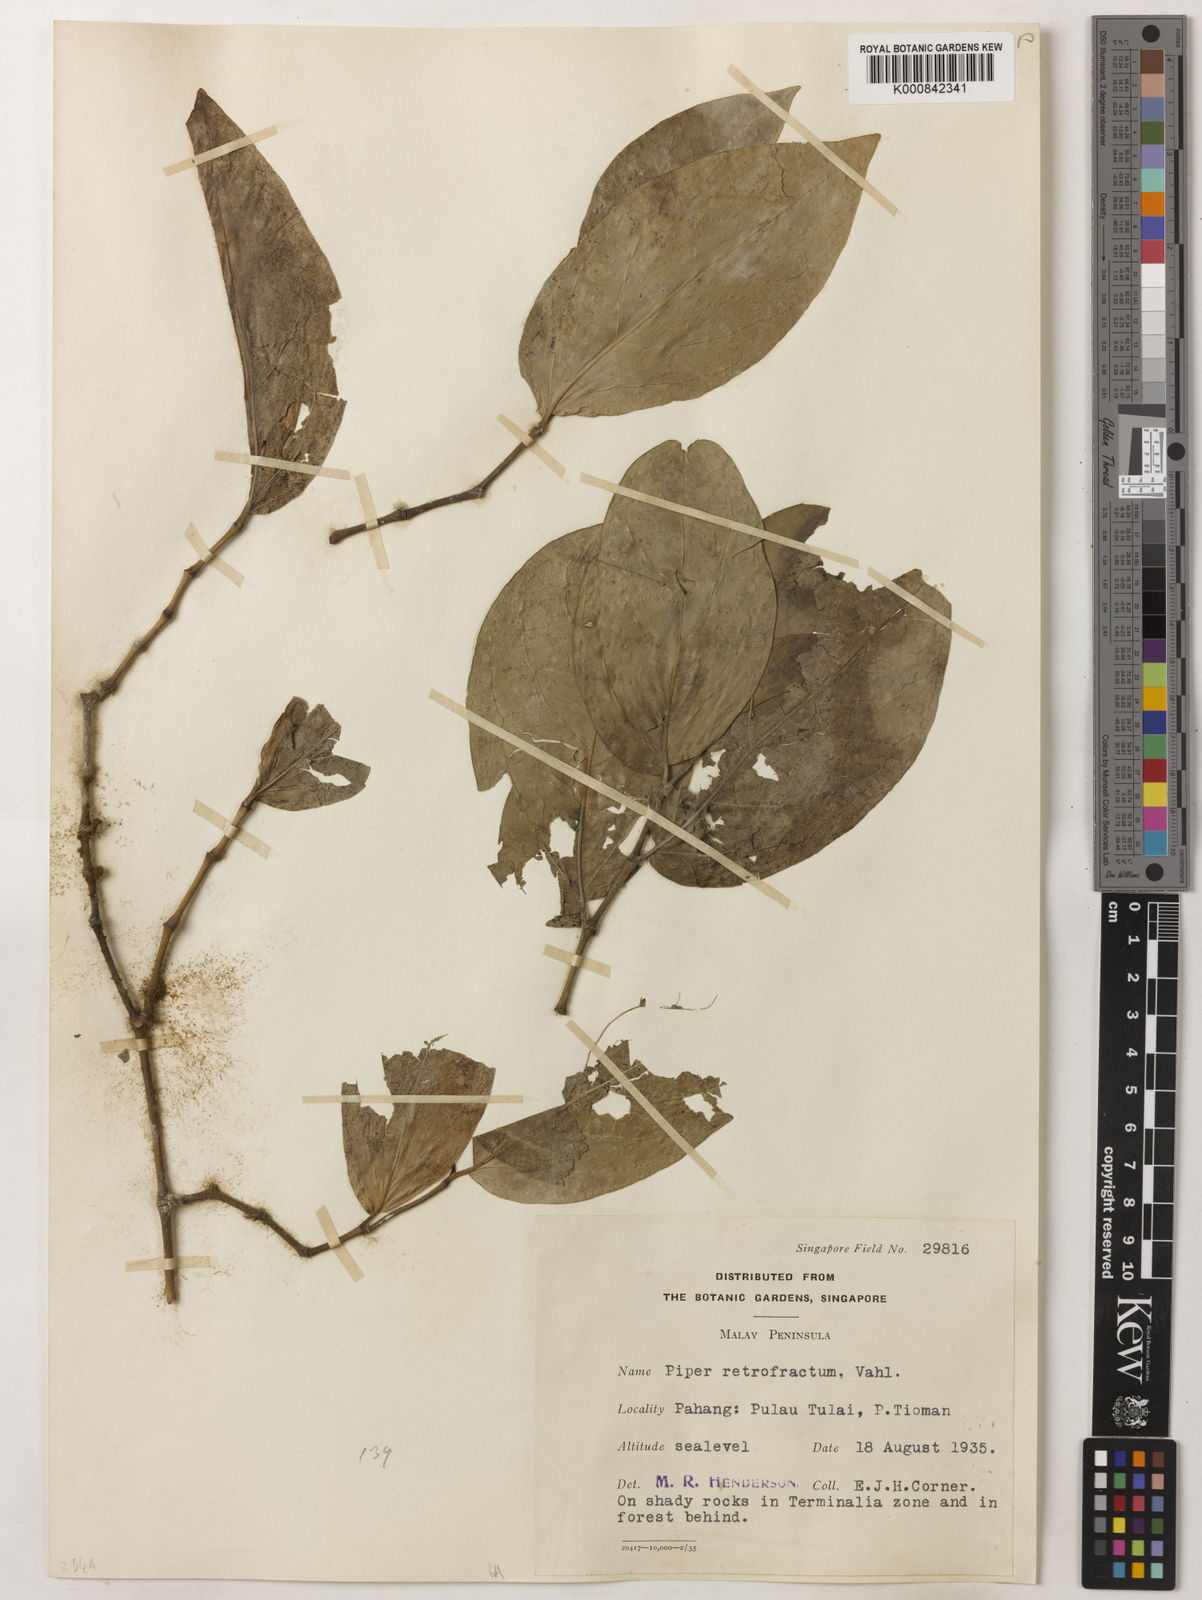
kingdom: Plantae
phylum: Tracheophyta
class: Magnoliopsida
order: Piperales
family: Piperaceae
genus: Piper
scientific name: Piper retrofractum
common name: Javanese long pepper
